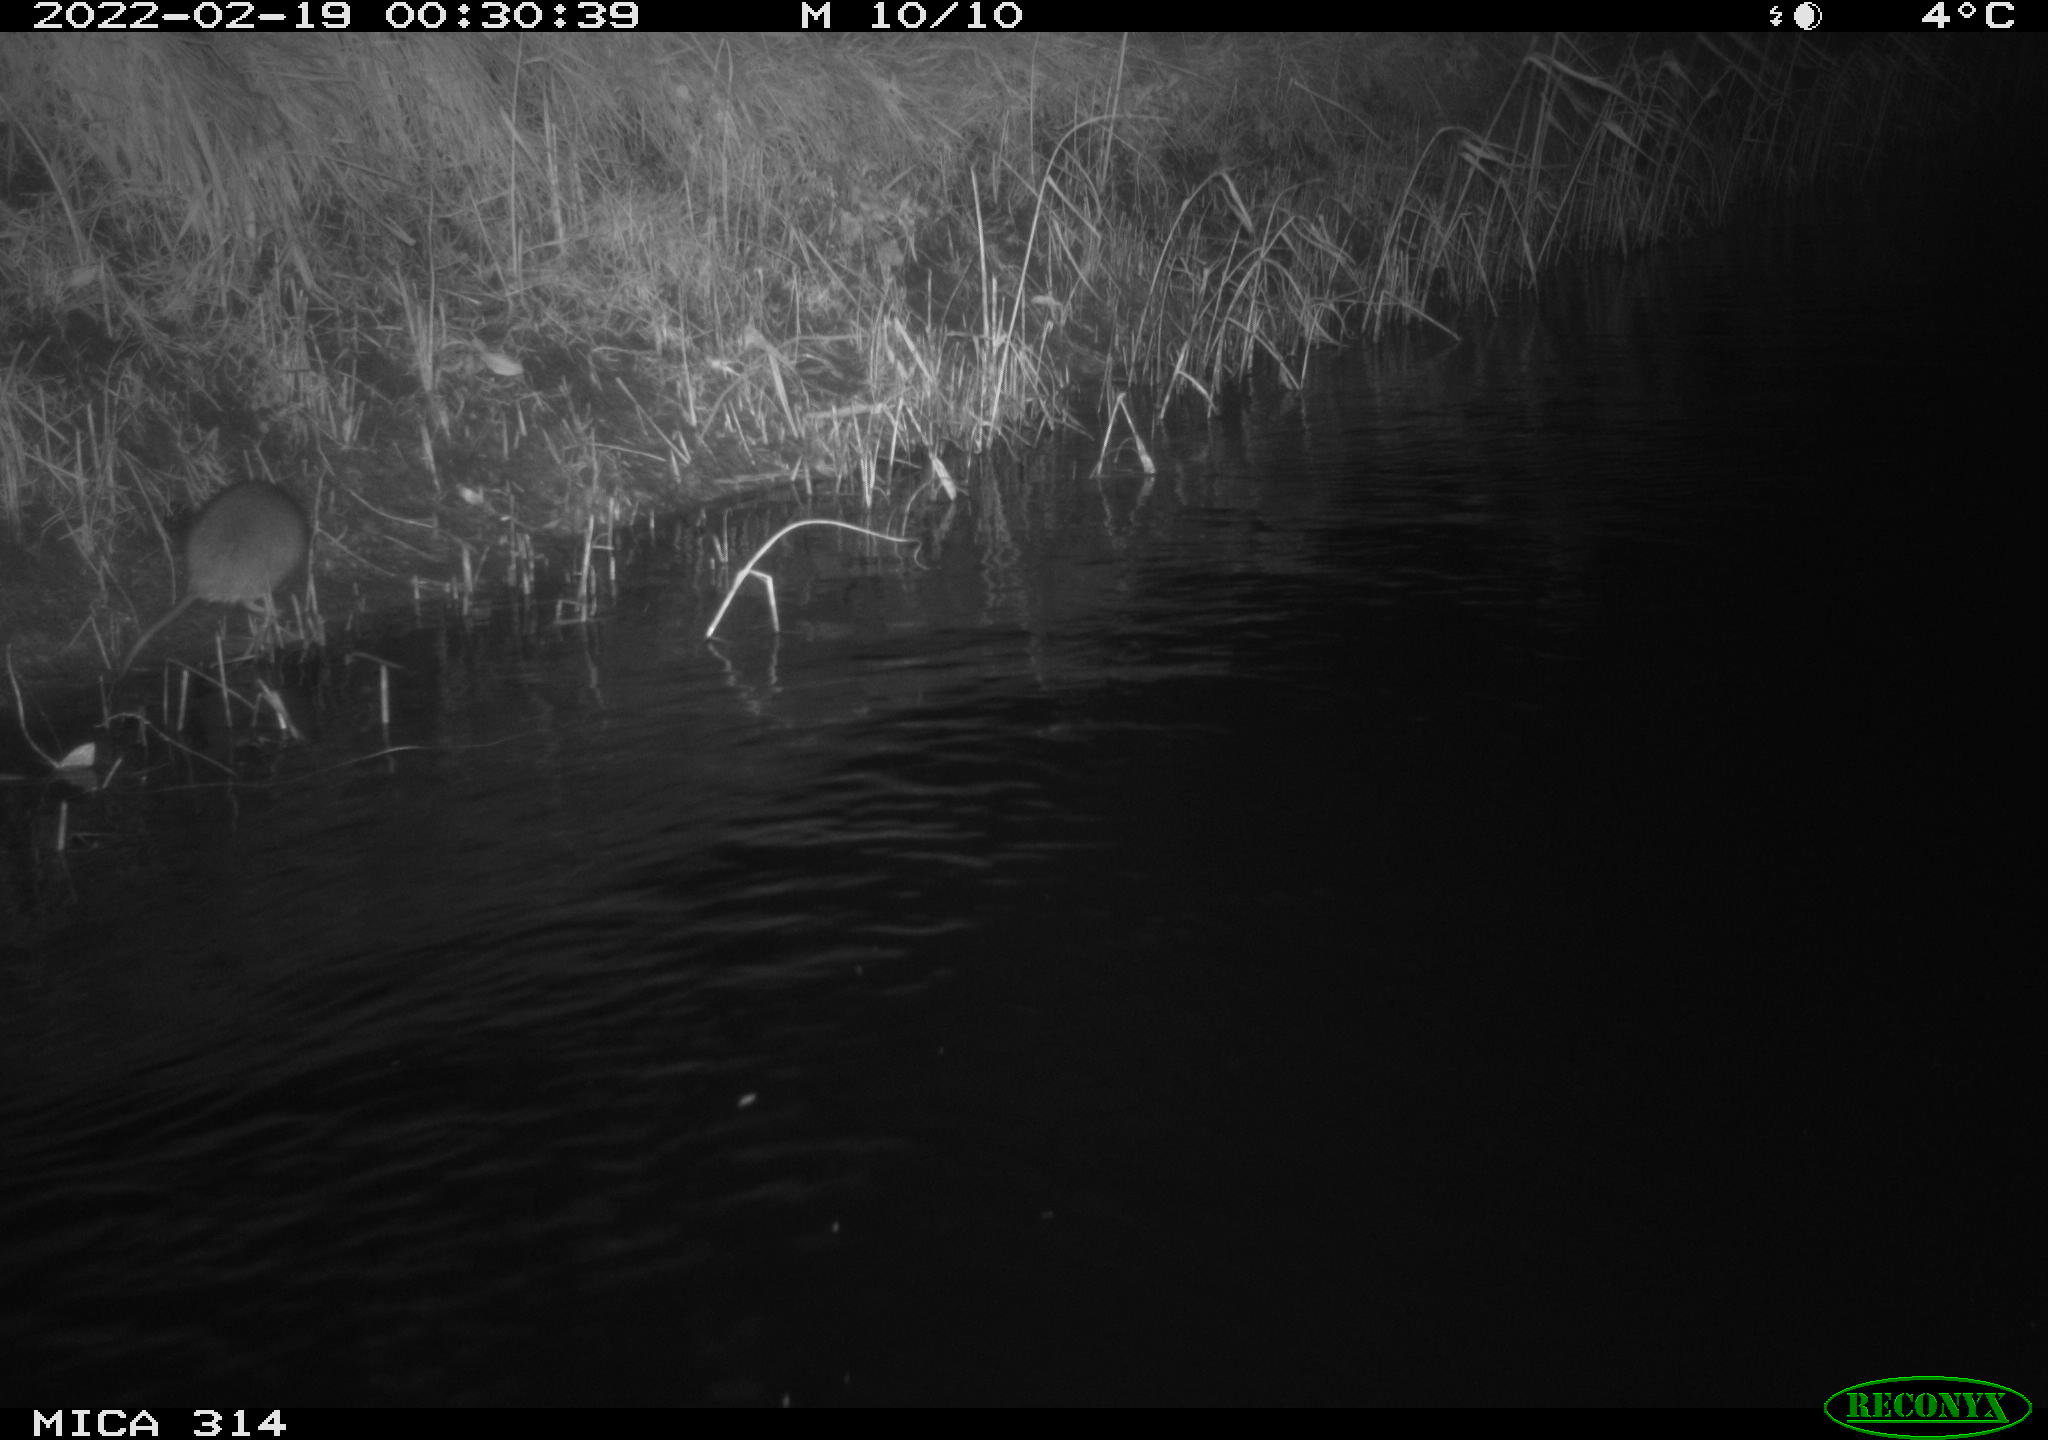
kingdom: Animalia
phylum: Chordata
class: Mammalia
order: Rodentia
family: Muridae
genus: Rattus
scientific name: Rattus norvegicus
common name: Brown rat
